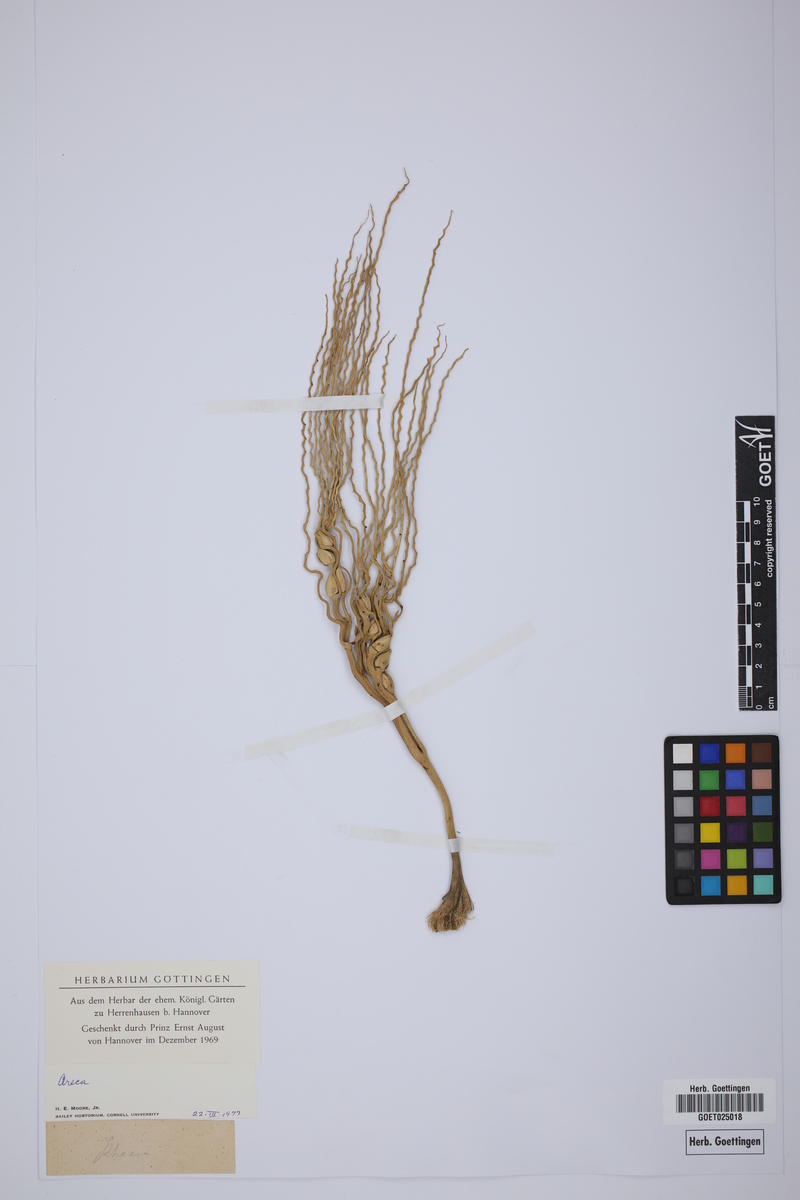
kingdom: Plantae
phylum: Tracheophyta
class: Liliopsida
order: Arecales
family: Arecaceae
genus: Areca
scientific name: Areca
